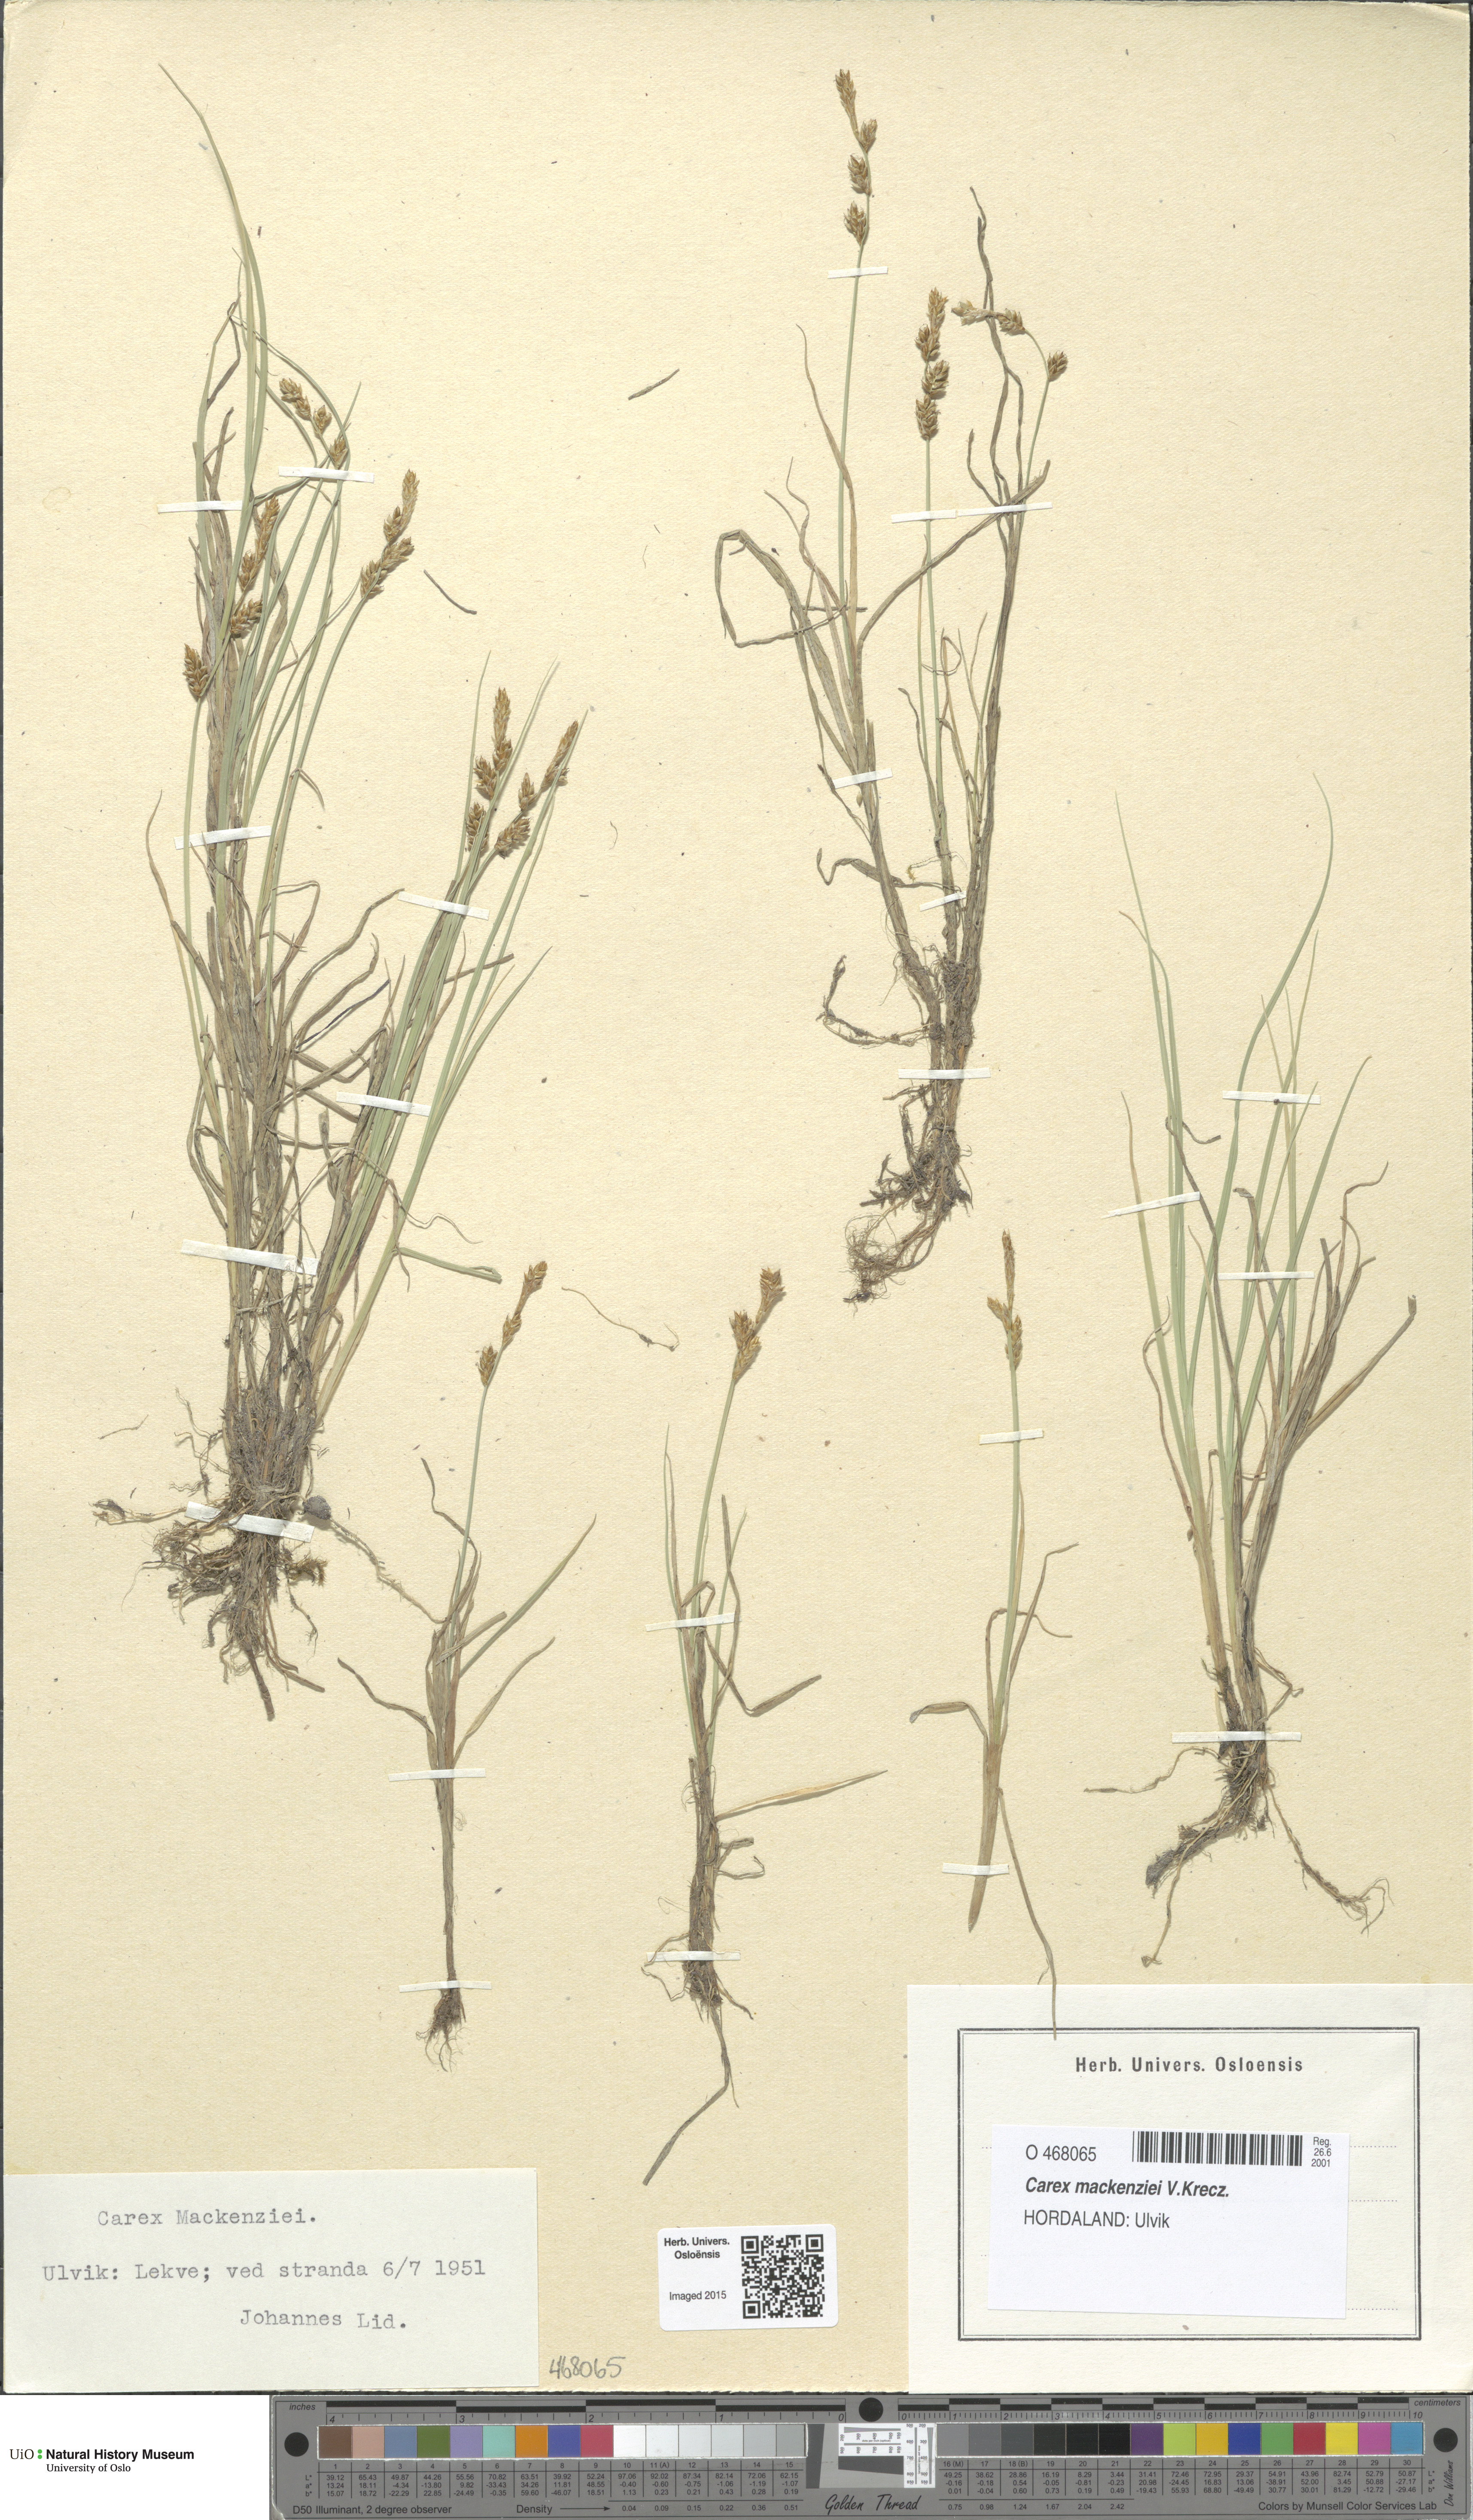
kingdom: Plantae
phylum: Tracheophyta
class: Liliopsida
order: Poales
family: Cyperaceae
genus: Carex
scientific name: Carex mackenziei
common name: Mackenzie's sedge
